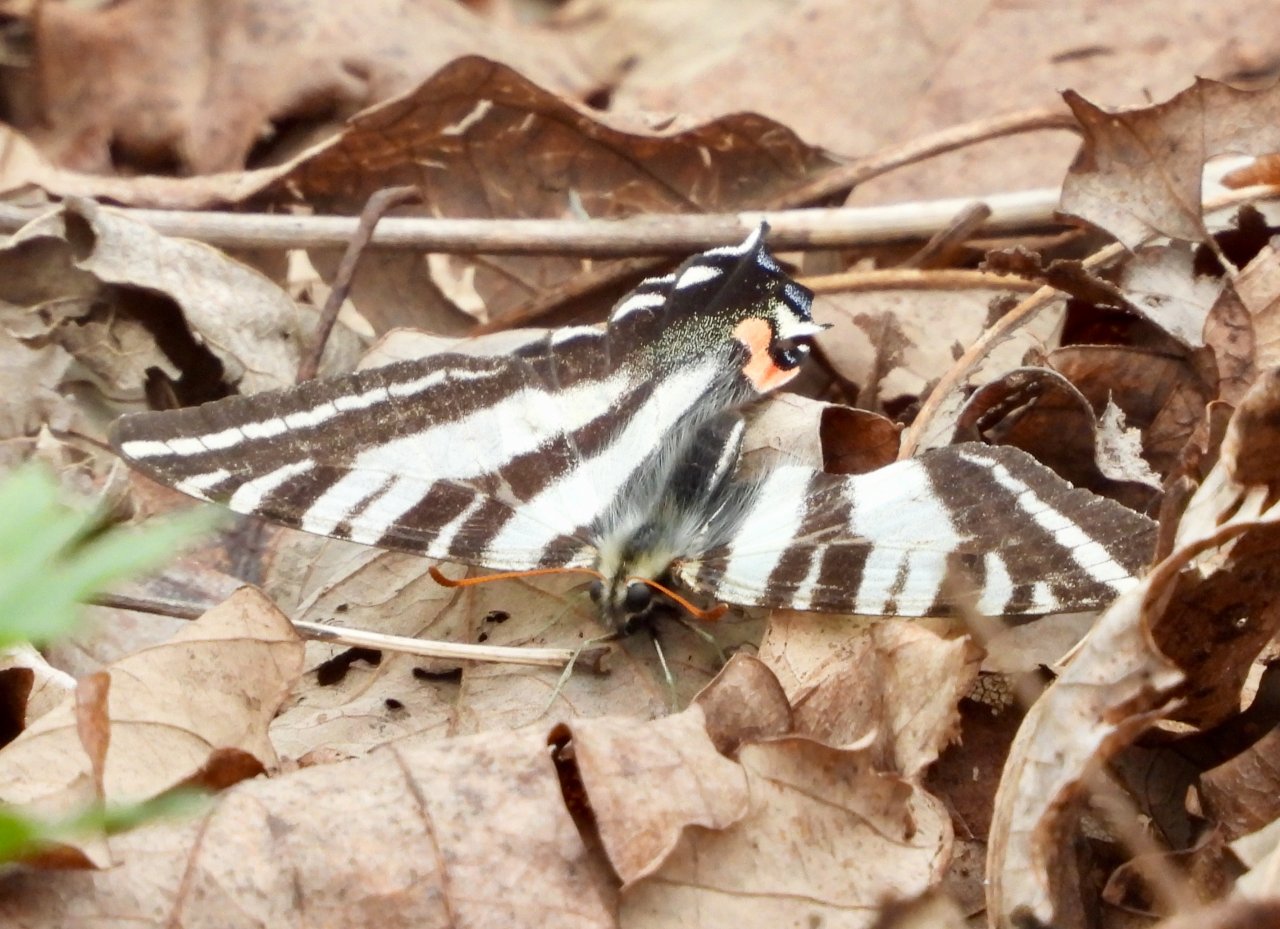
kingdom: Animalia
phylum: Arthropoda
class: Insecta
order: Lepidoptera
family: Papilionidae
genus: Protographium
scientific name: Protographium marcellus
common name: Zebra Swallowtail
